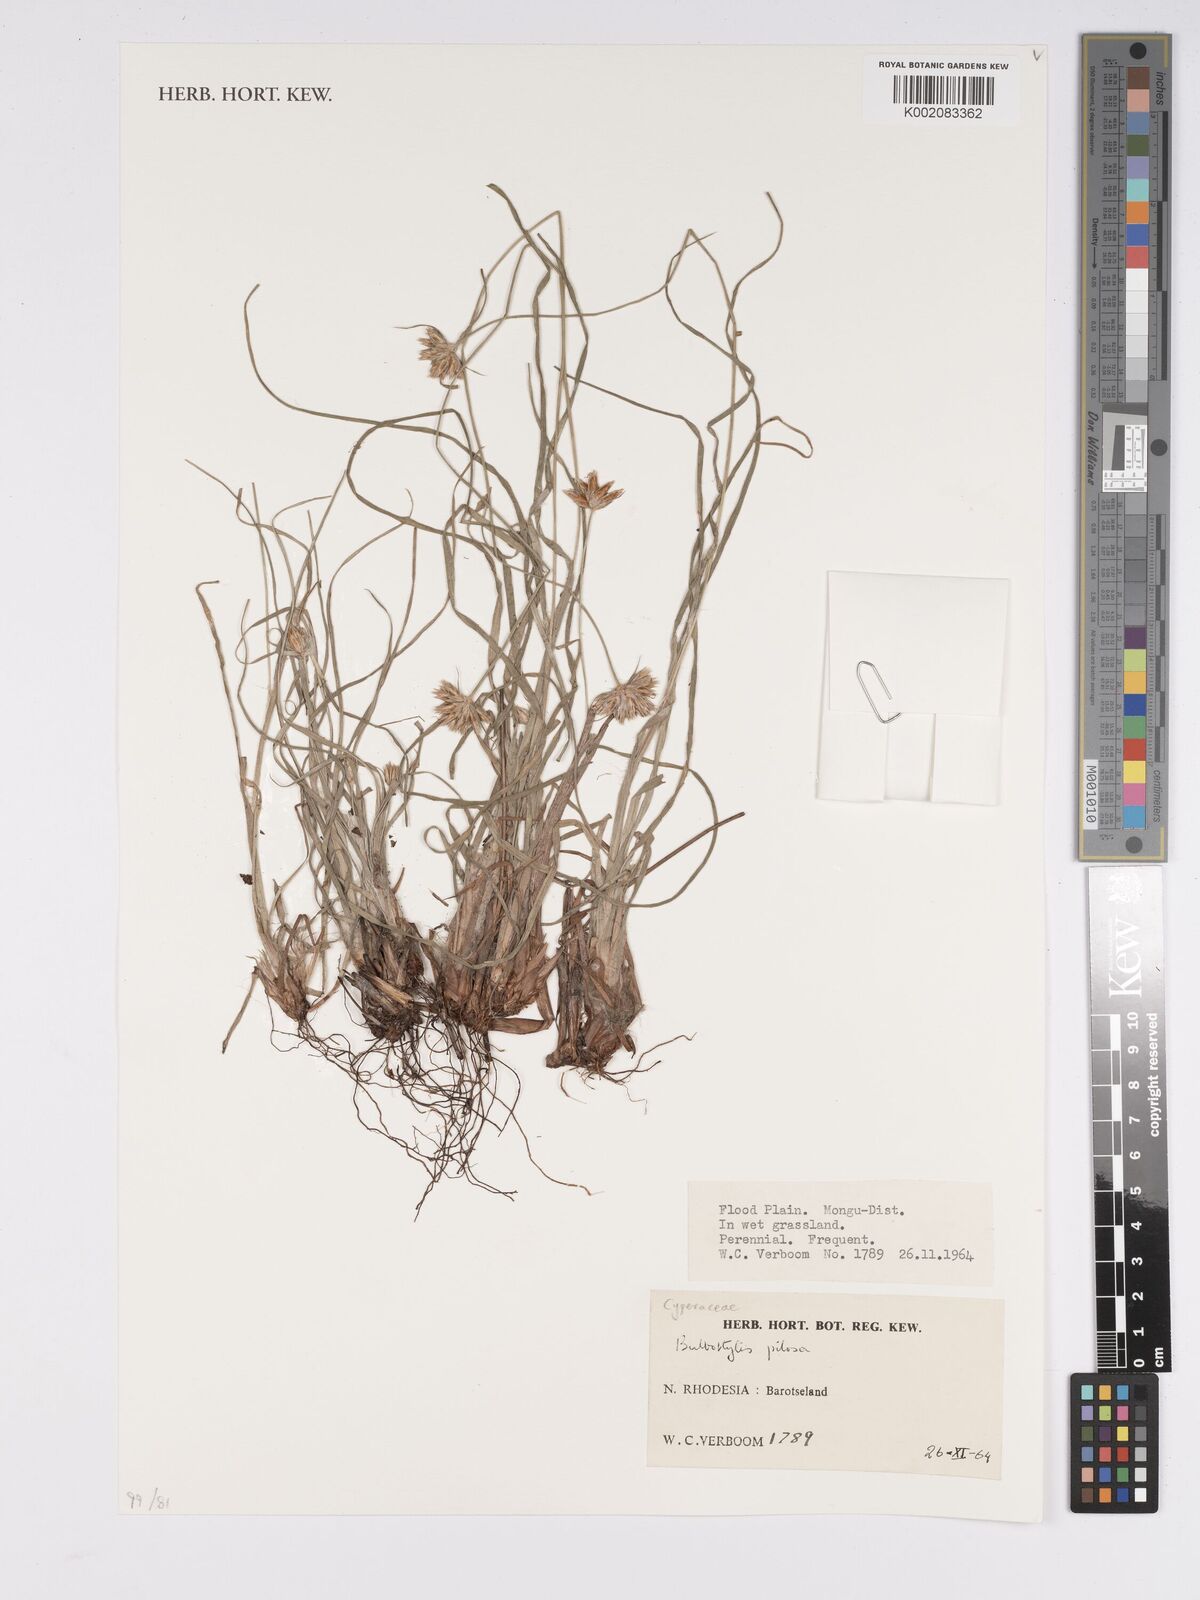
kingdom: Plantae
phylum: Tracheophyta
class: Liliopsida
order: Poales
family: Cyperaceae
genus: Bulbostylis
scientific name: Bulbostylis pilosa
